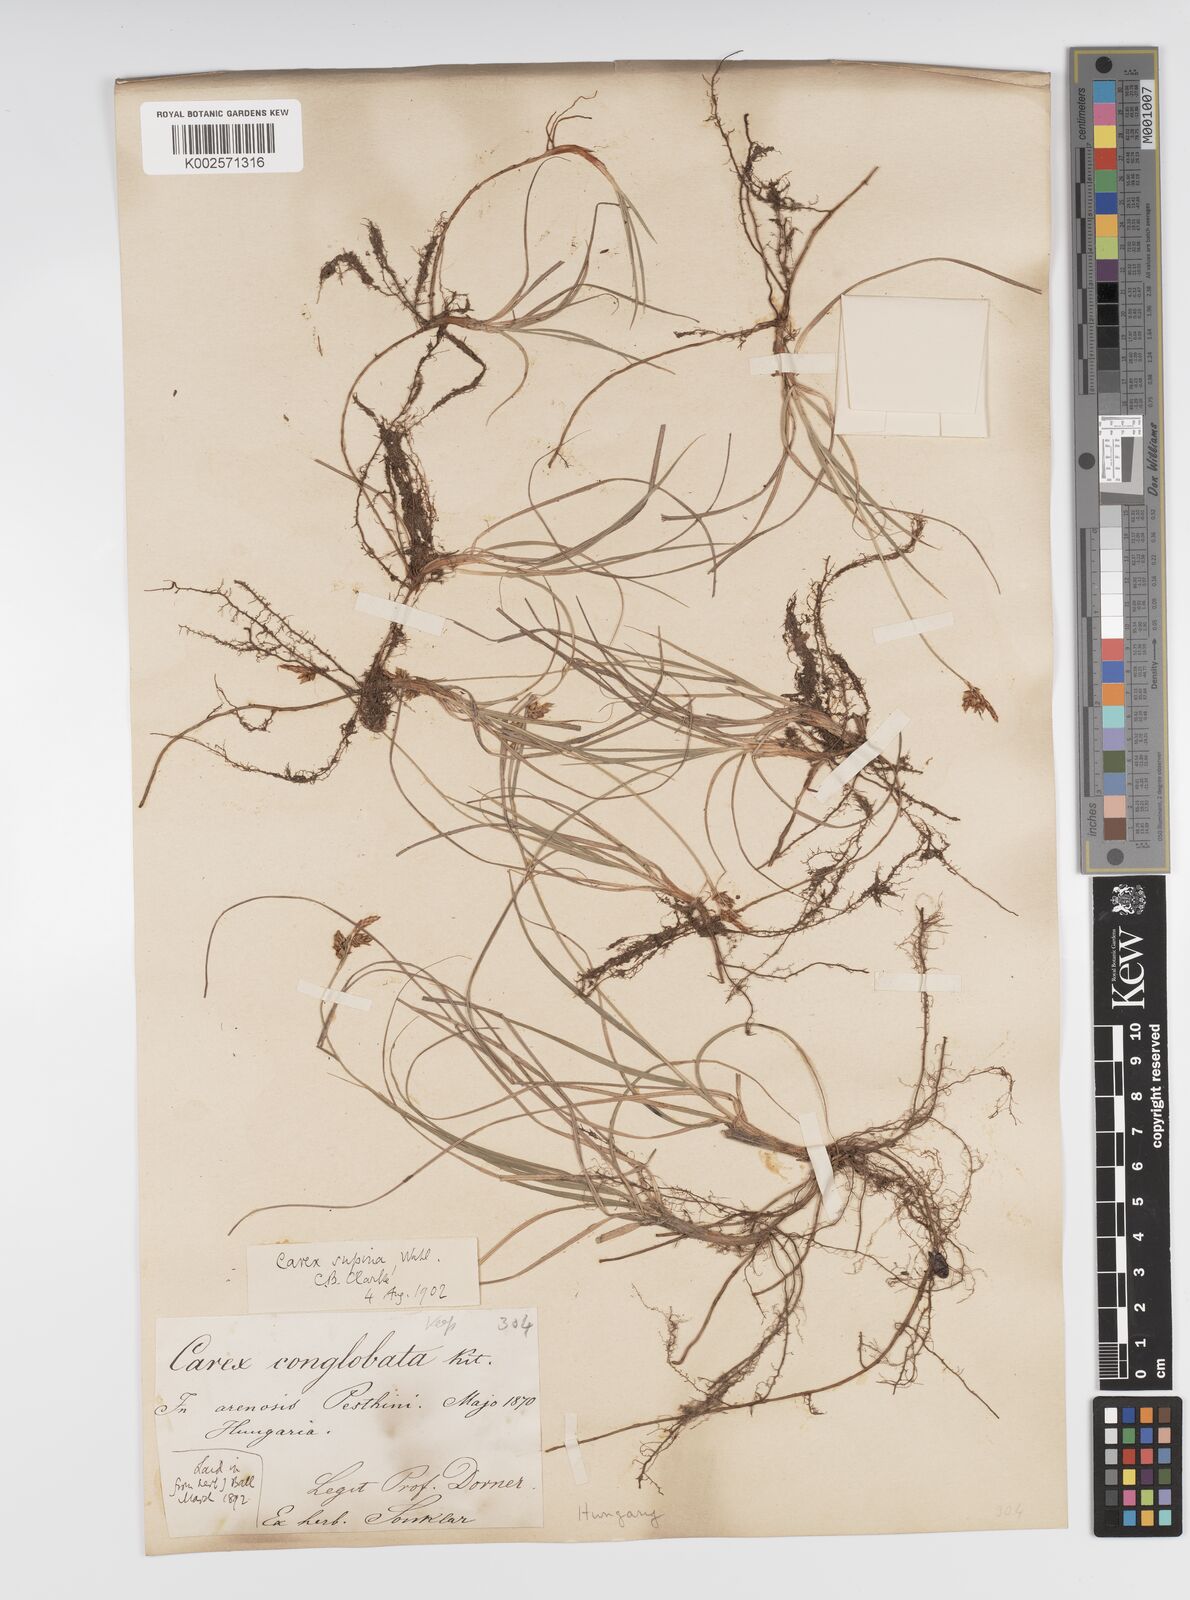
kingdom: Plantae
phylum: Tracheophyta
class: Liliopsida
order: Poales
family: Cyperaceae
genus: Carex
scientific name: Carex supina
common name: Lying-back sedge
